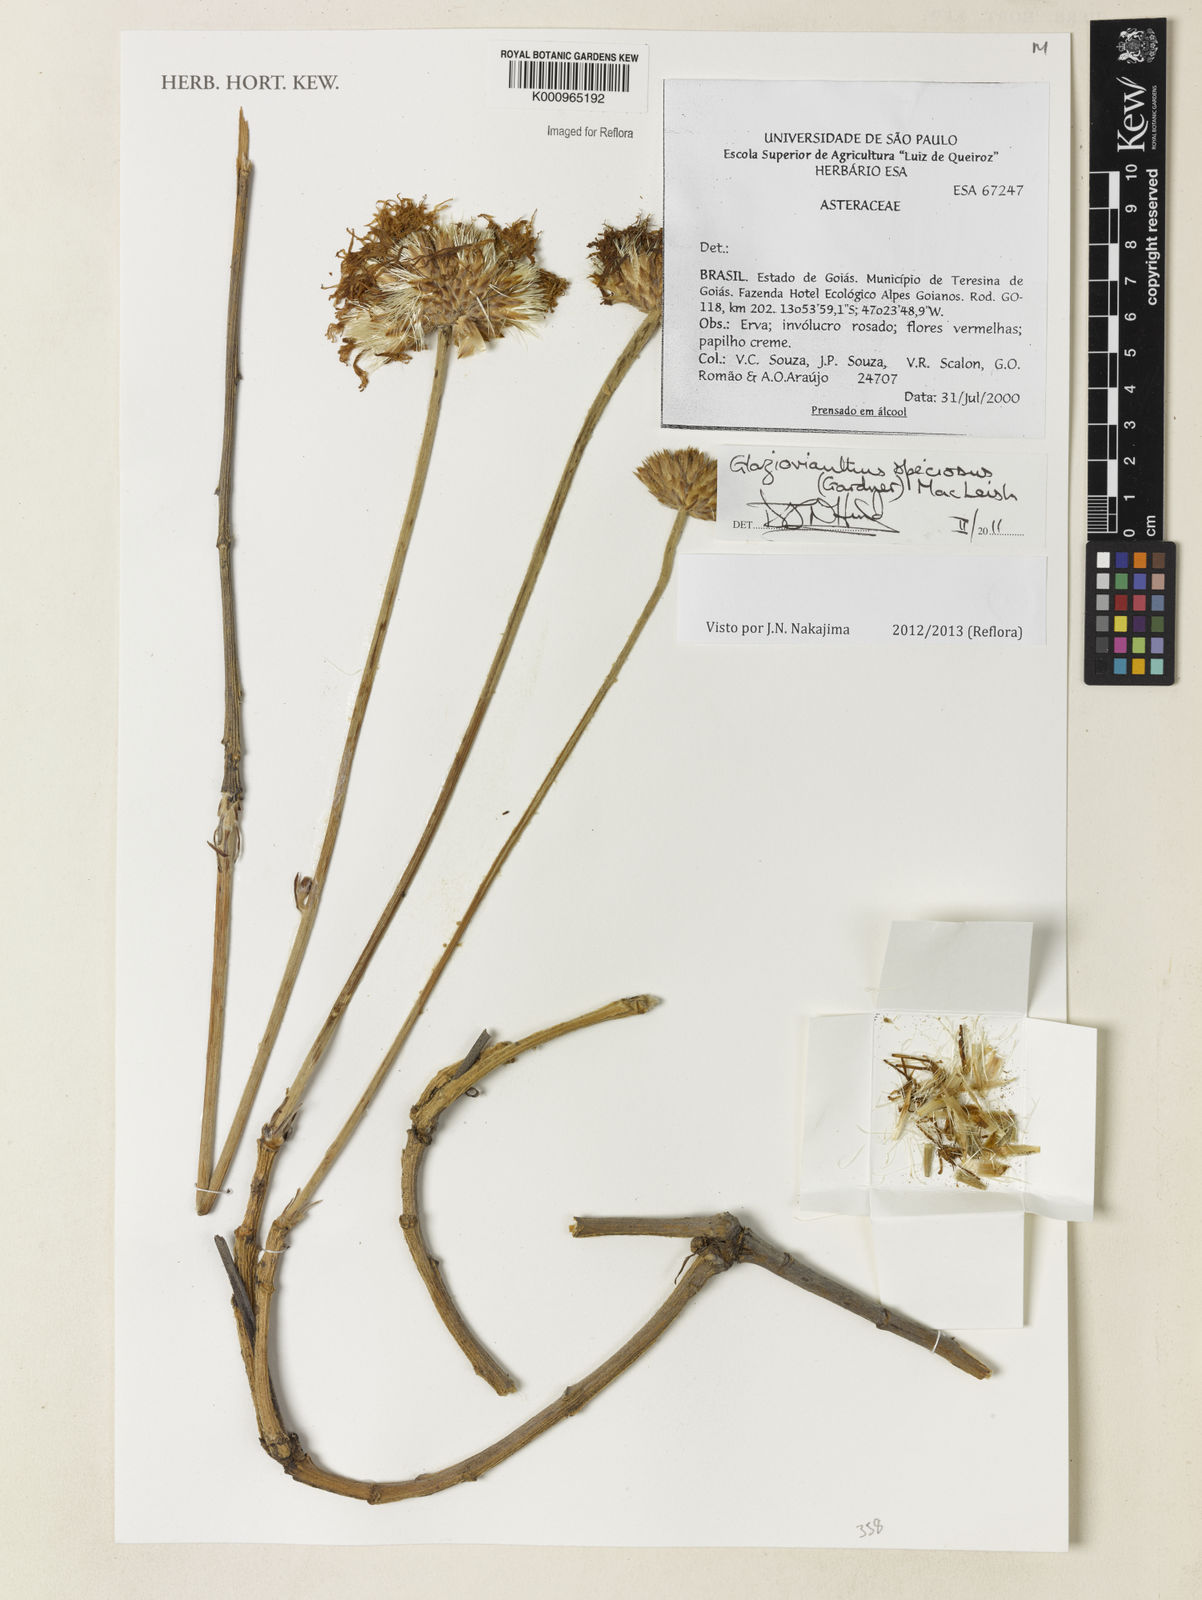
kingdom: Plantae
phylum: Tracheophyta
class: Magnoliopsida
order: Asterales
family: Asteraceae
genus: Chresta
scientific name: Chresta speciosa
